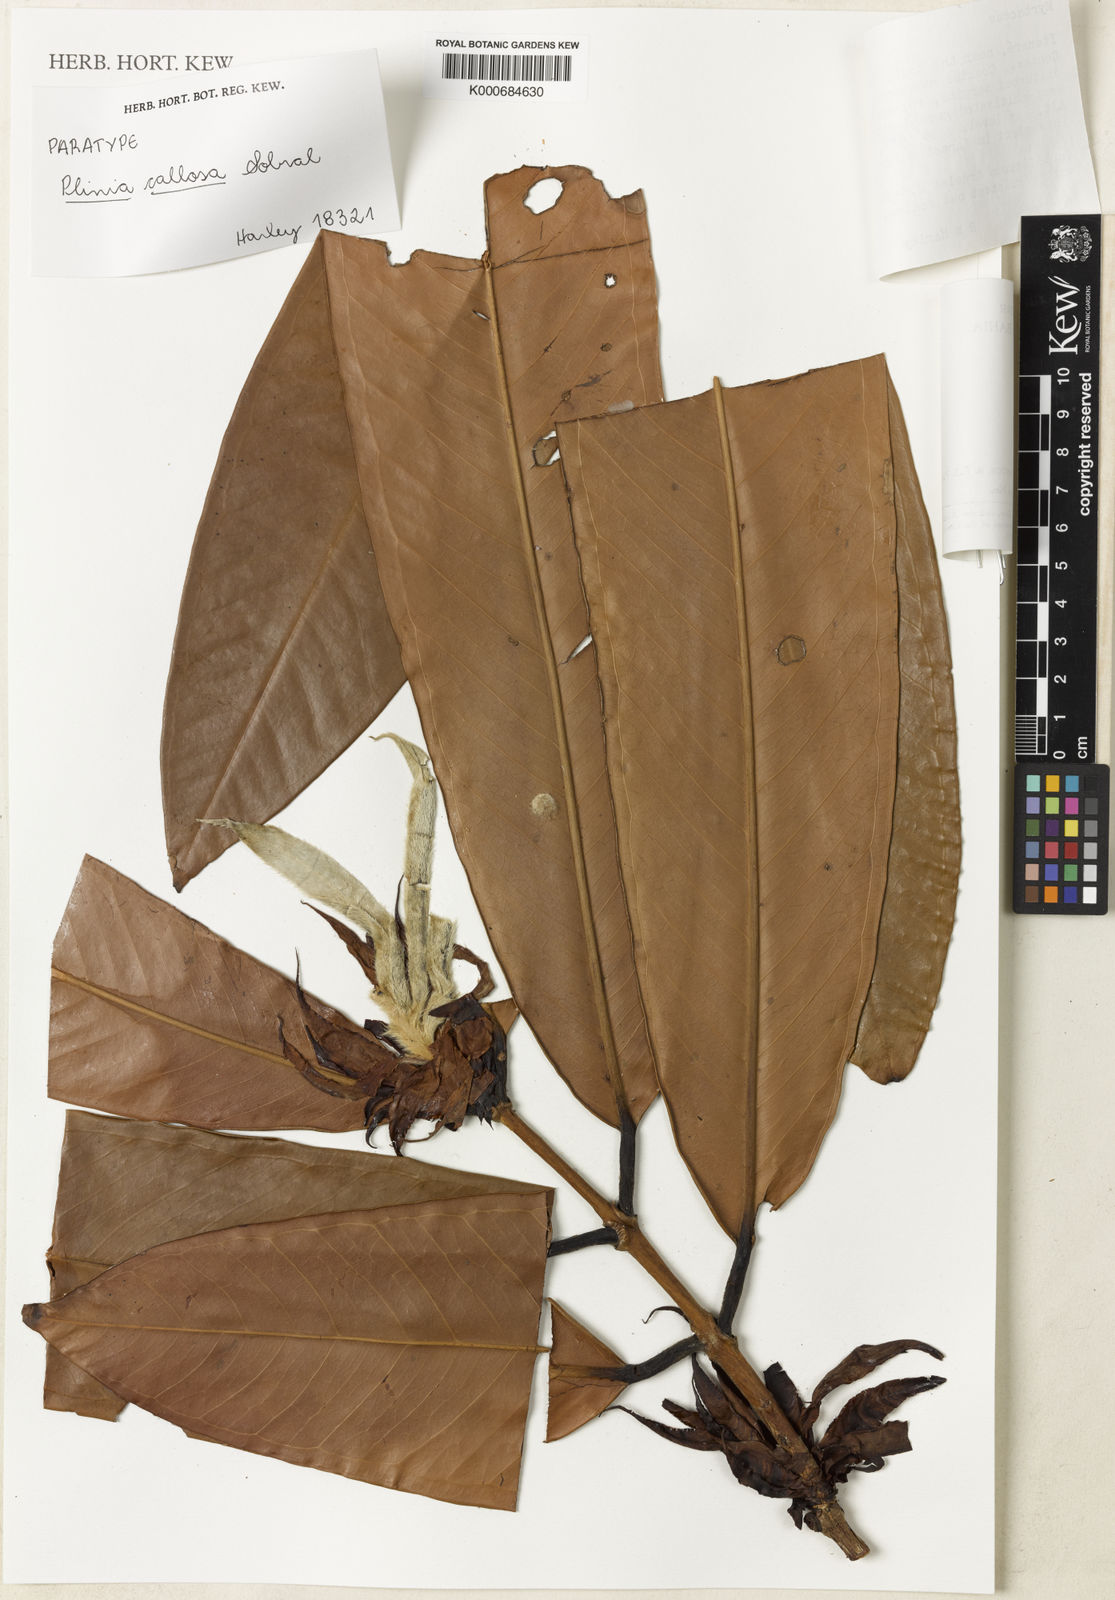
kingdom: Plantae
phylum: Tracheophyta
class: Magnoliopsida
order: Myrtales
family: Myrtaceae
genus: Plinia
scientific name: Plinia rara
